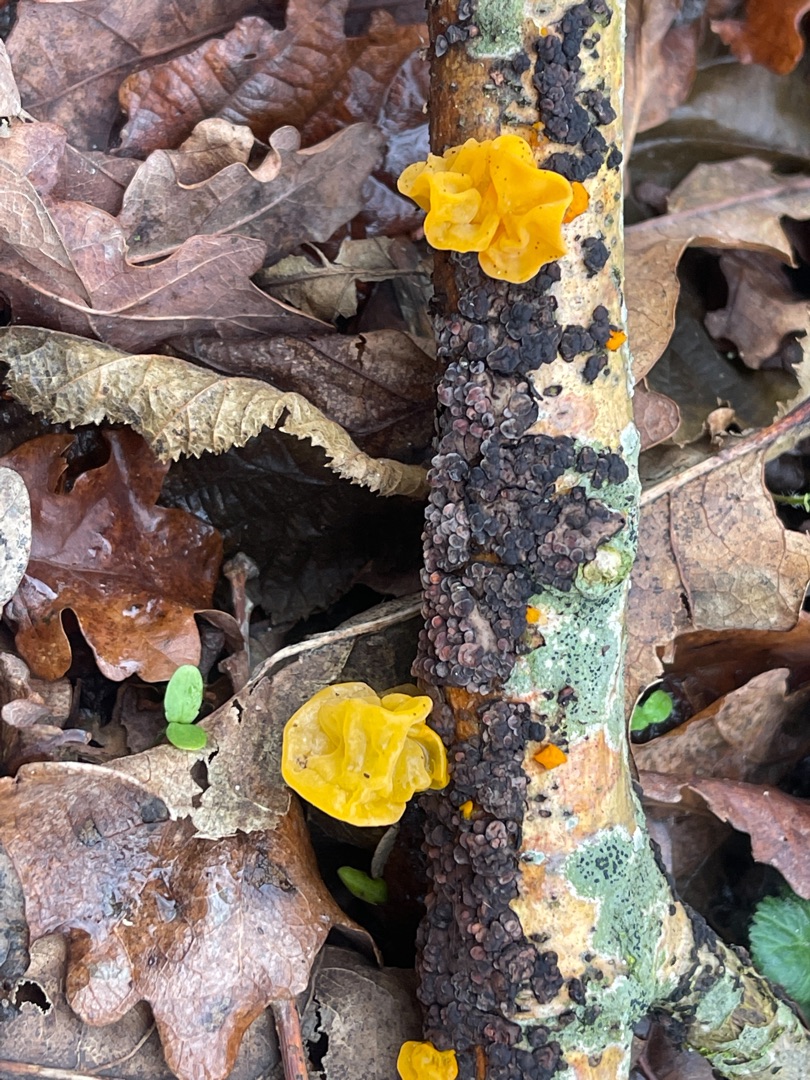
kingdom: Fungi
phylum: Basidiomycota
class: Tremellomycetes
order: Tremellales
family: Tremellaceae
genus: Tremella
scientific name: Tremella mesenterica
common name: Gul bævresvamp
